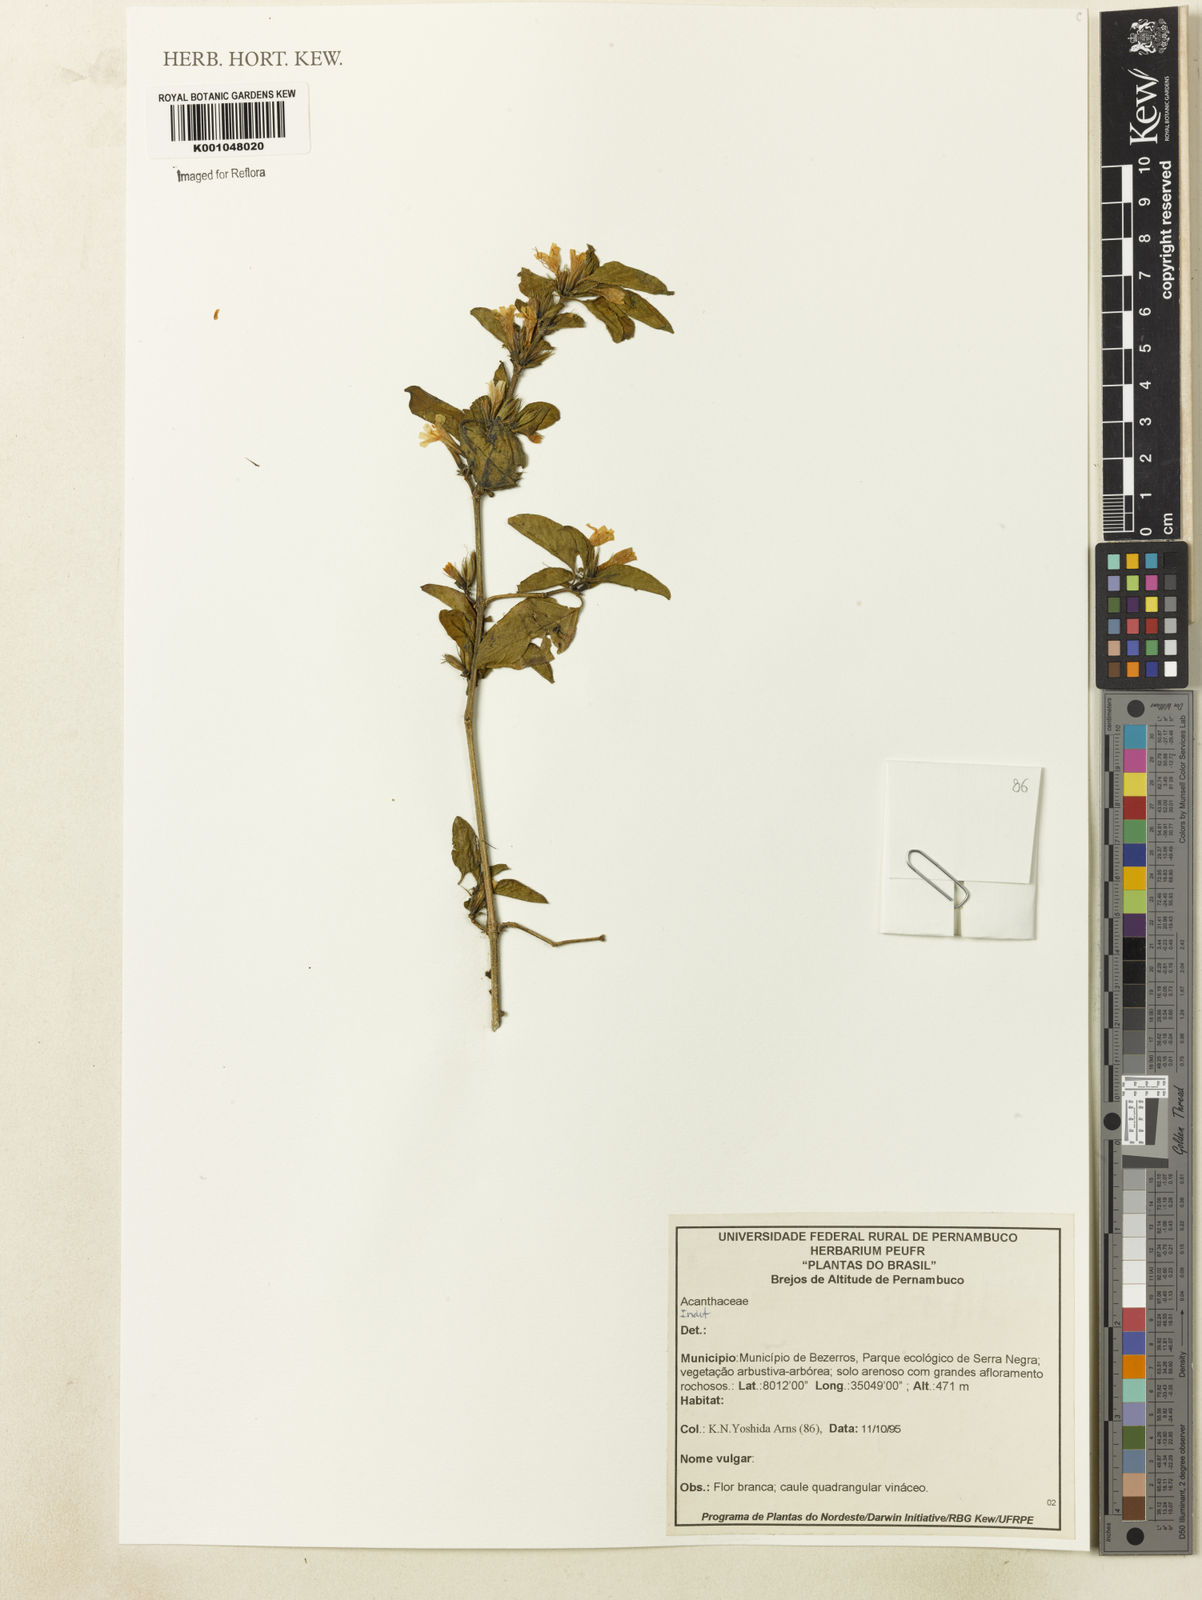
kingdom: Plantae
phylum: Tracheophyta
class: Magnoliopsida
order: Lamiales
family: Acanthaceae
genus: Dyschoriste
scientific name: Dyschoriste
